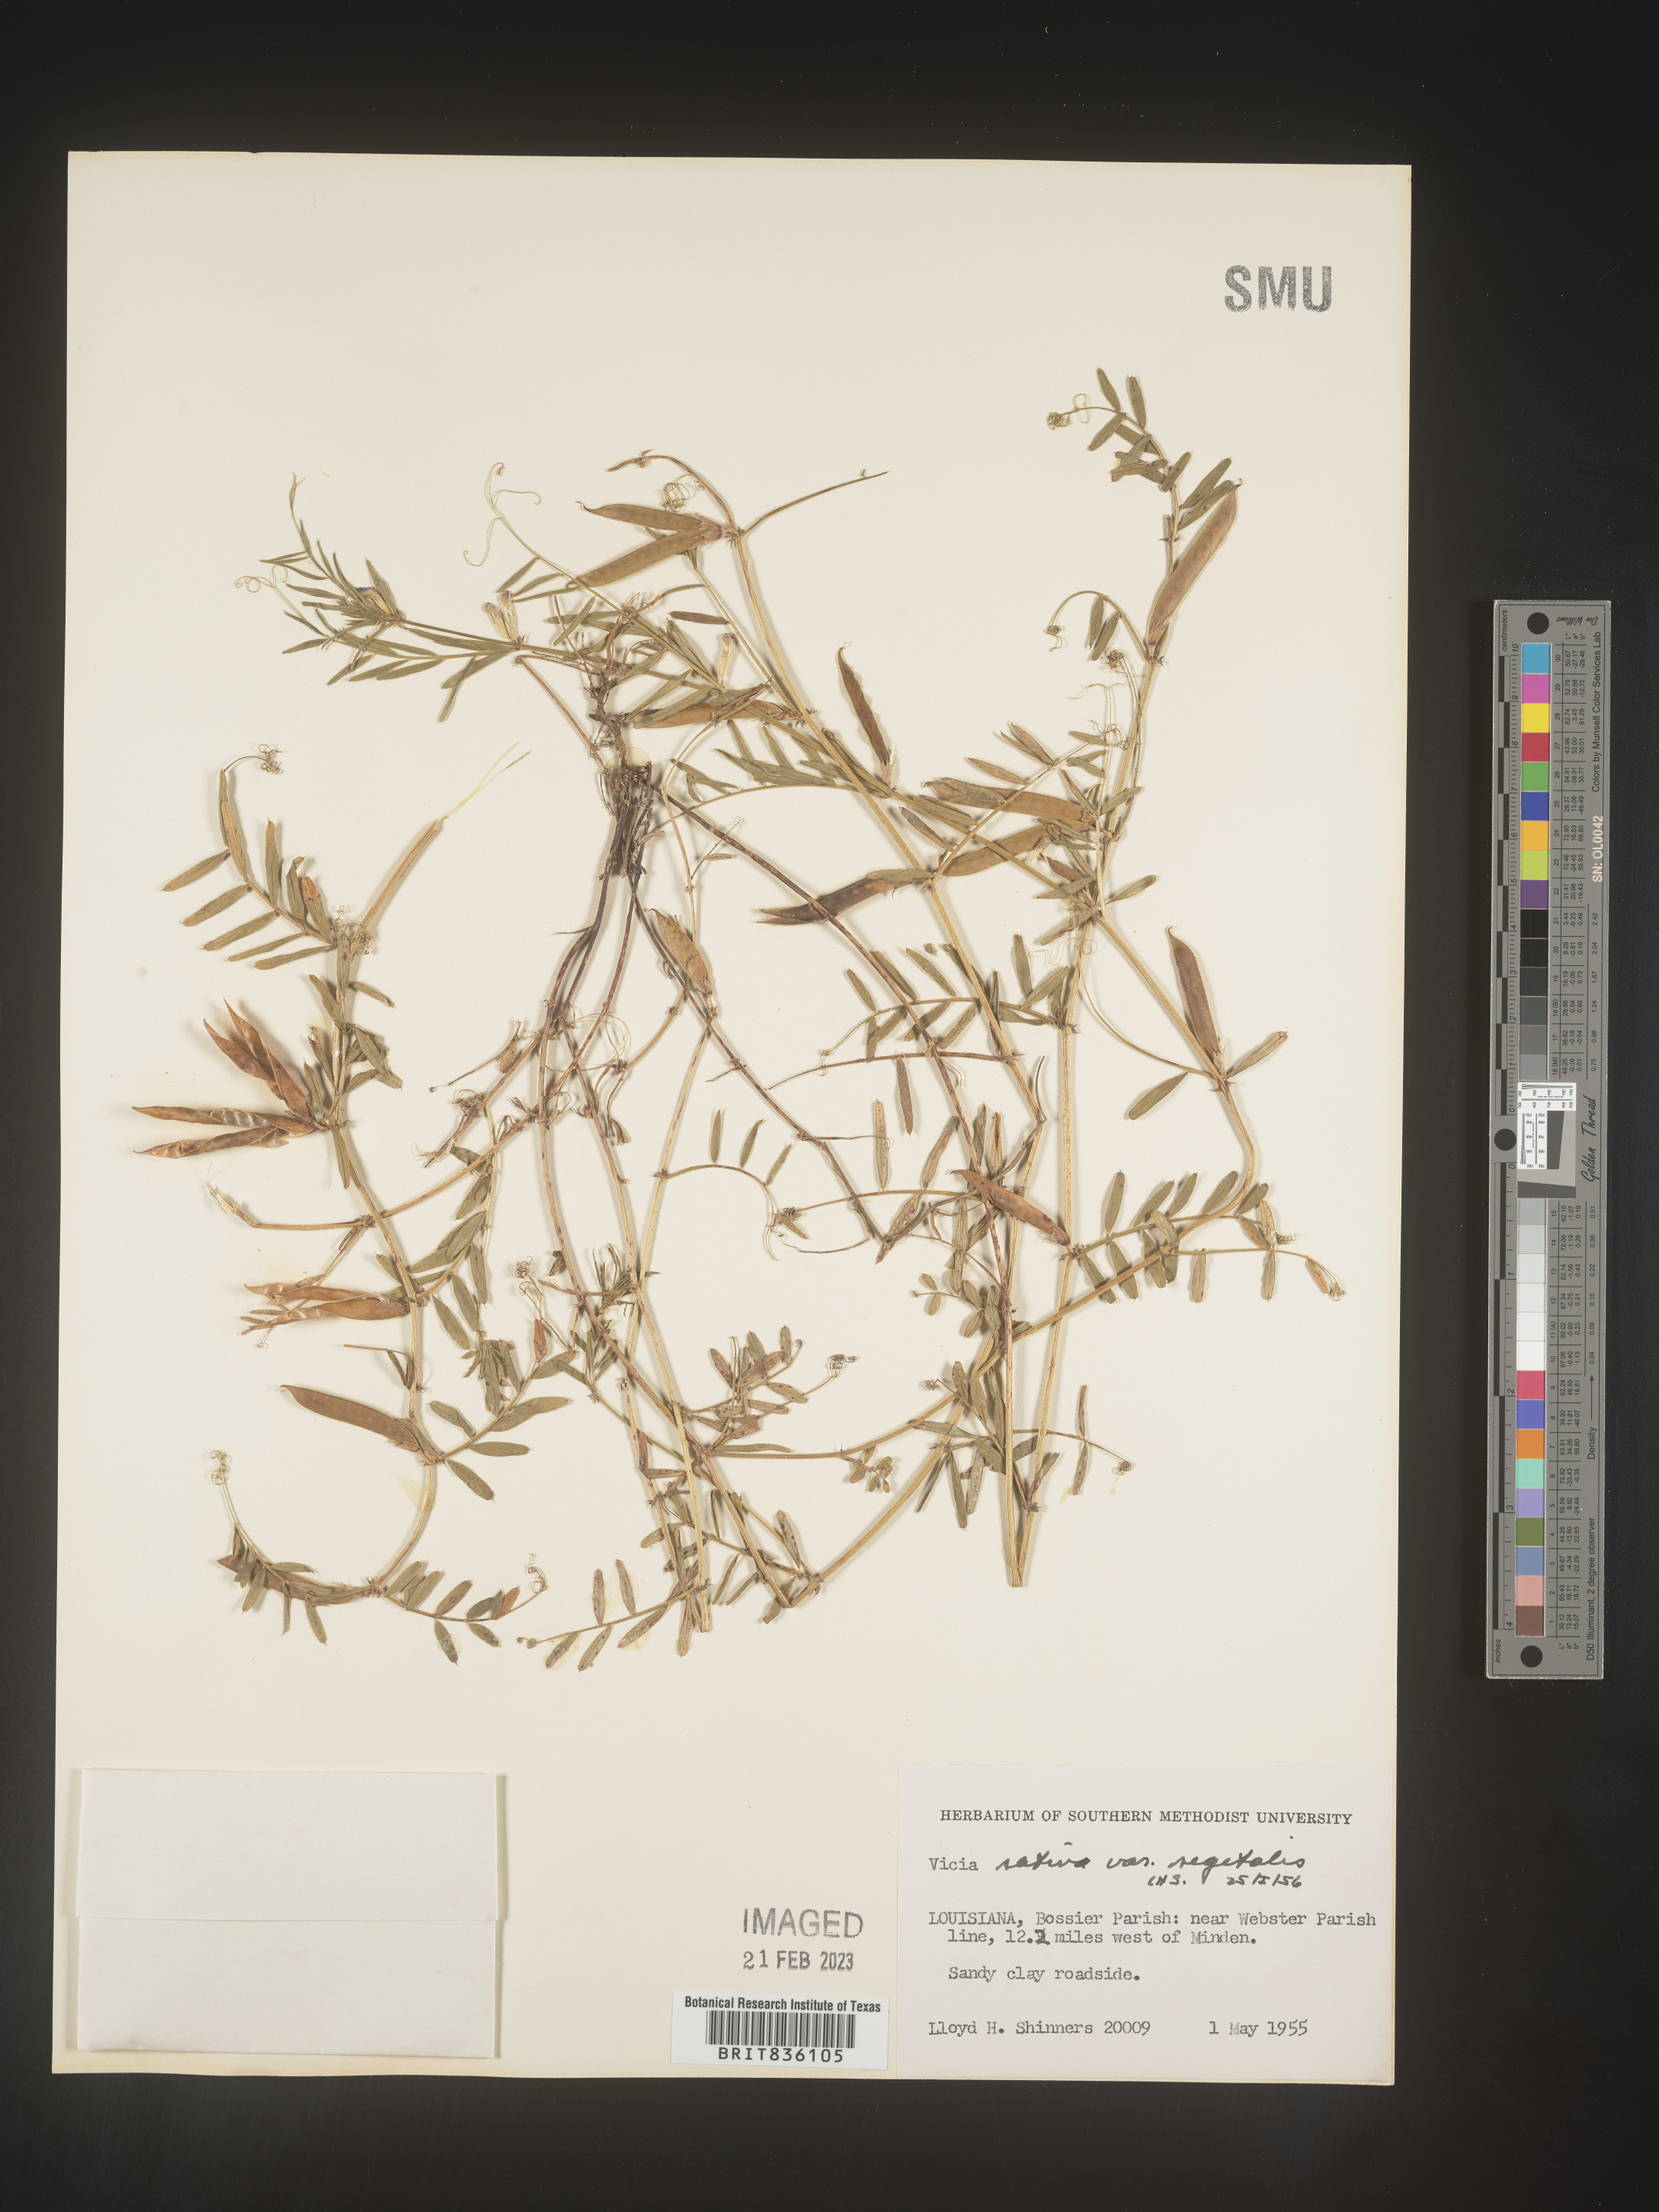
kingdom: Plantae
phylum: Tracheophyta
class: Magnoliopsida
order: Fabales
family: Fabaceae
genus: Vicia
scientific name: Vicia sativa
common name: Garden vetch
